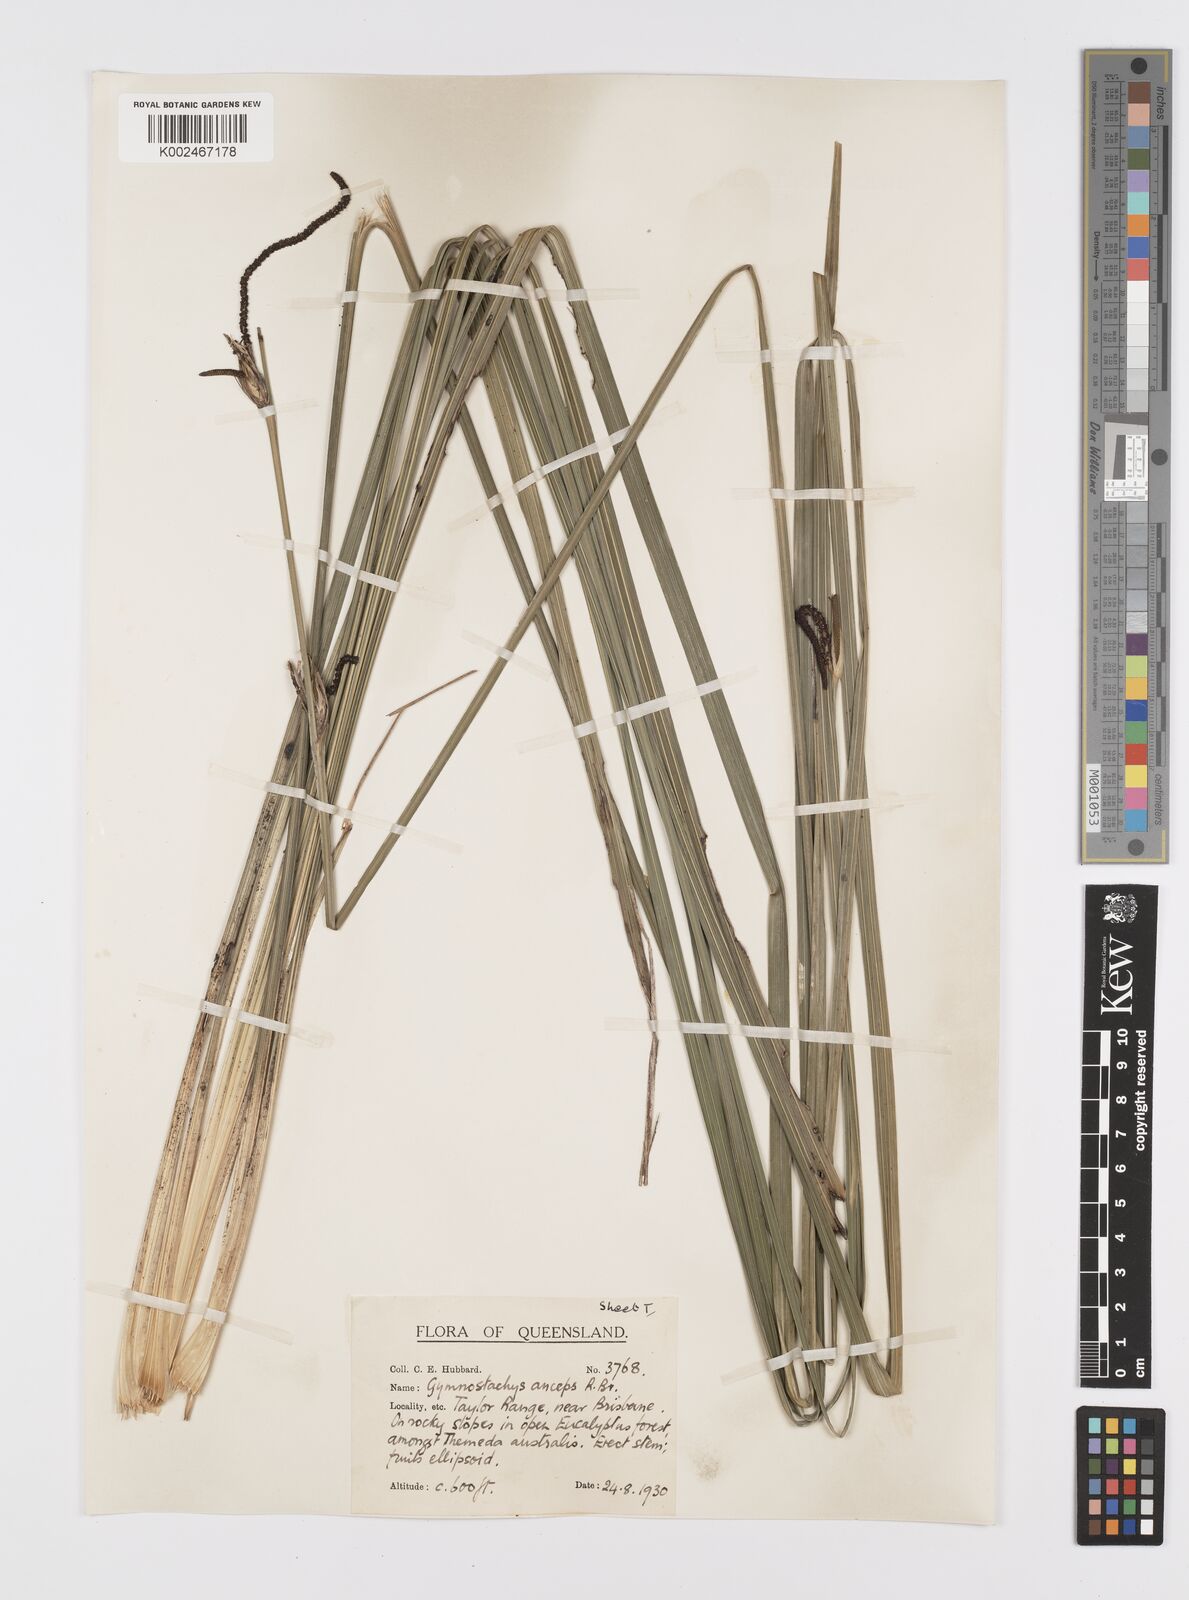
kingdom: Plantae
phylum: Tracheophyta
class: Liliopsida
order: Alismatales
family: Araceae
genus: Gymnostachys
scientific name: Gymnostachys anceps
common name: Settler's-flax
